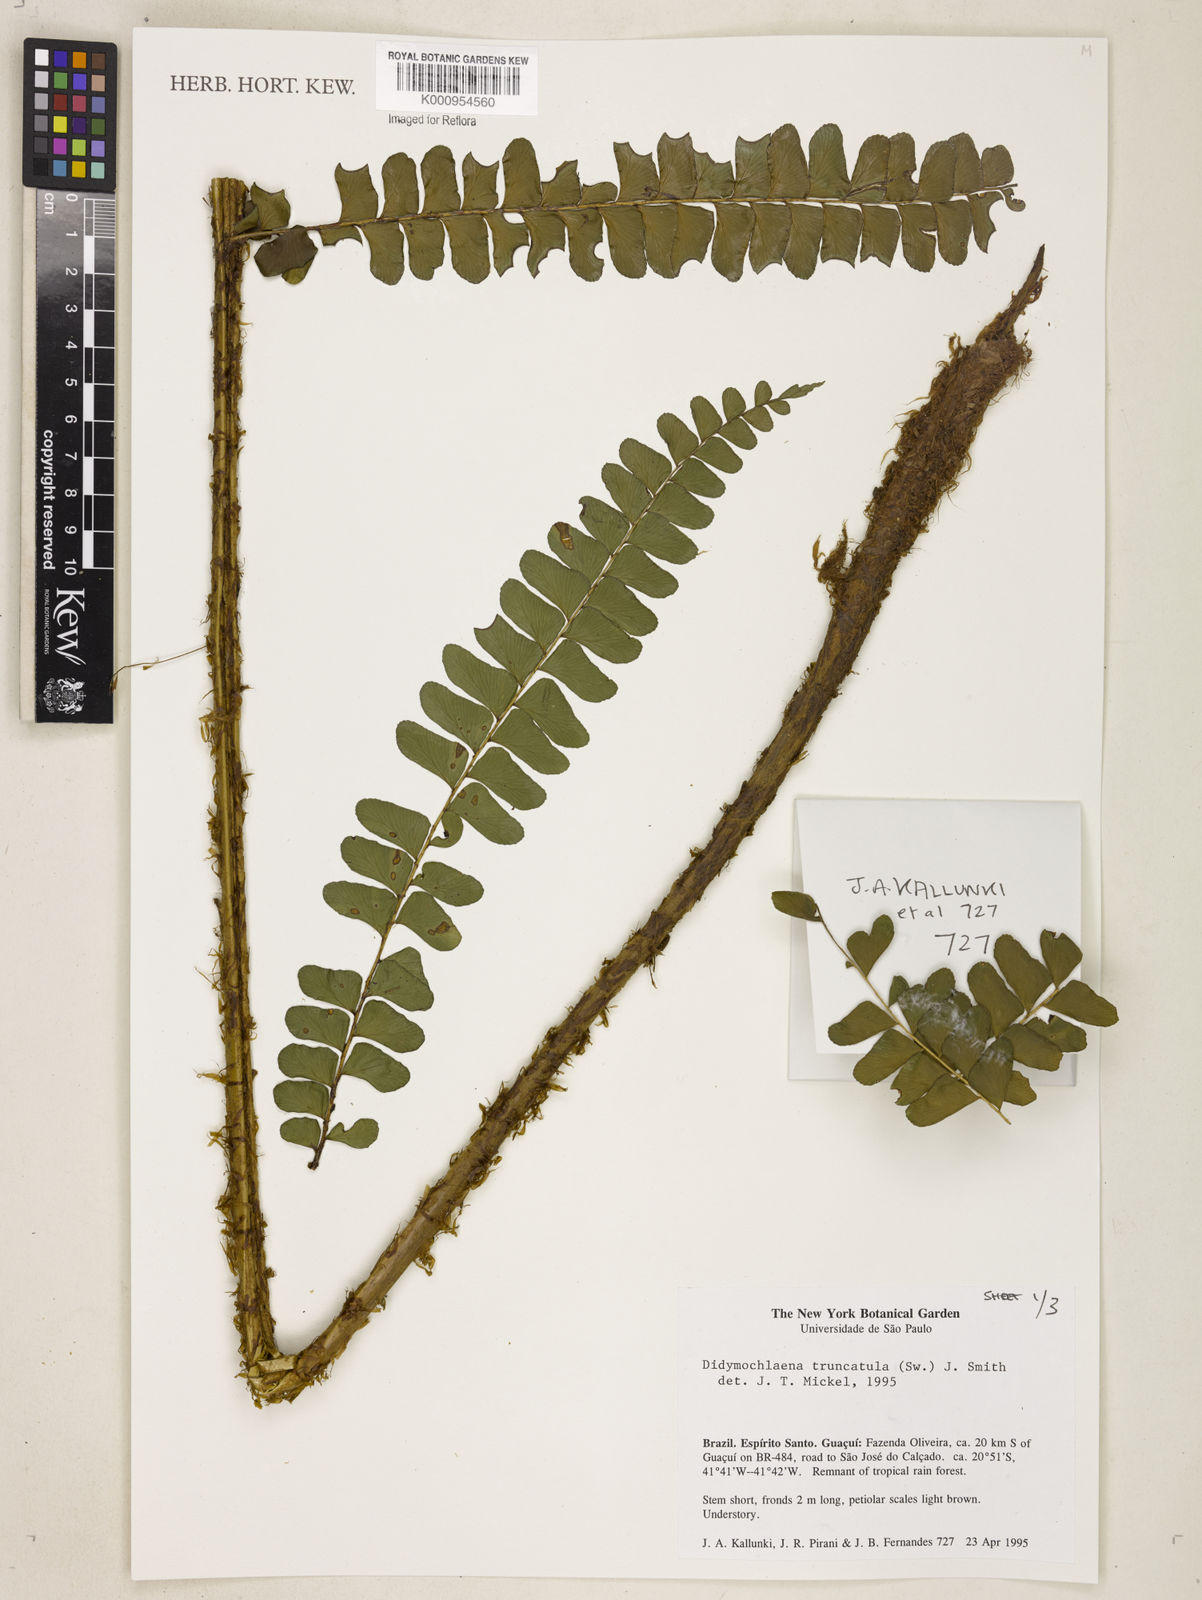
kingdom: Plantae
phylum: Tracheophyta
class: Polypodiopsida
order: Polypodiales
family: Didymochlaenaceae
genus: Didymochlaena
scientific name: Didymochlaena truncatula
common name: Mahogany fern
